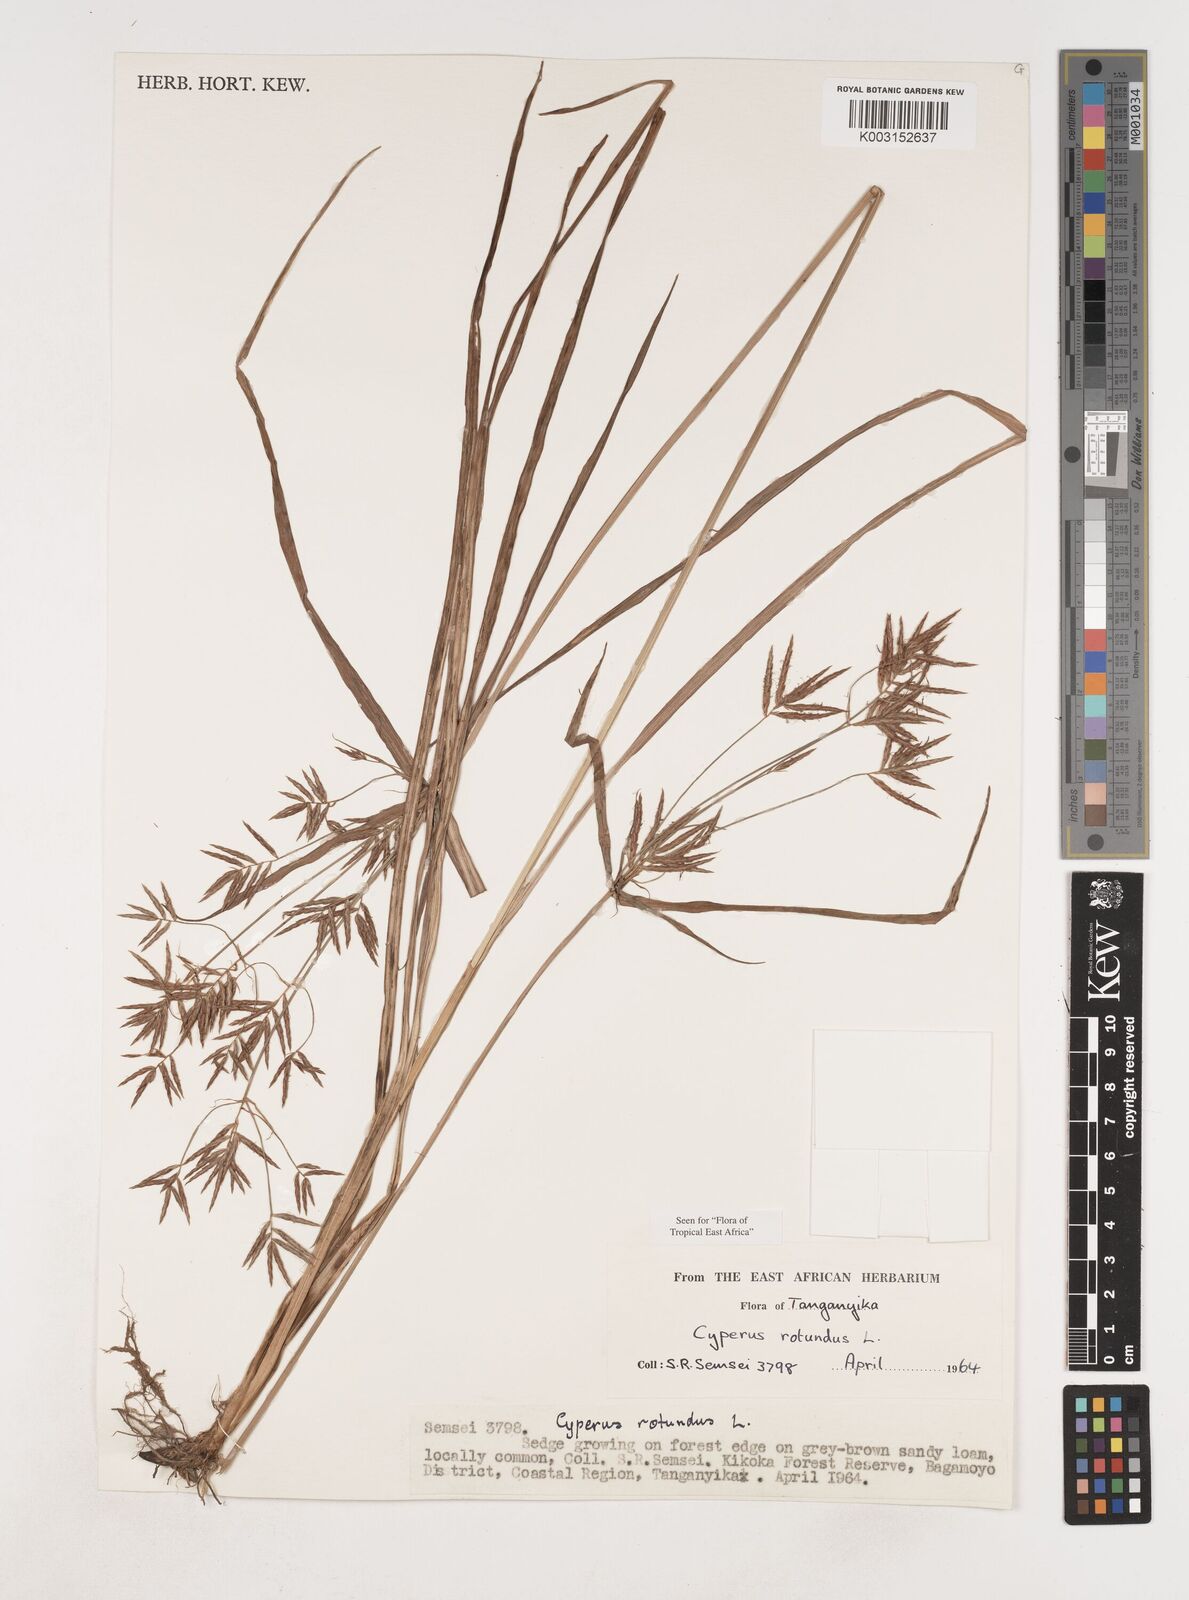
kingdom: Plantae
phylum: Tracheophyta
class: Liliopsida
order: Poales
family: Cyperaceae
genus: Cyperus
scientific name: Cyperus rotundus
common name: Nutgrass
